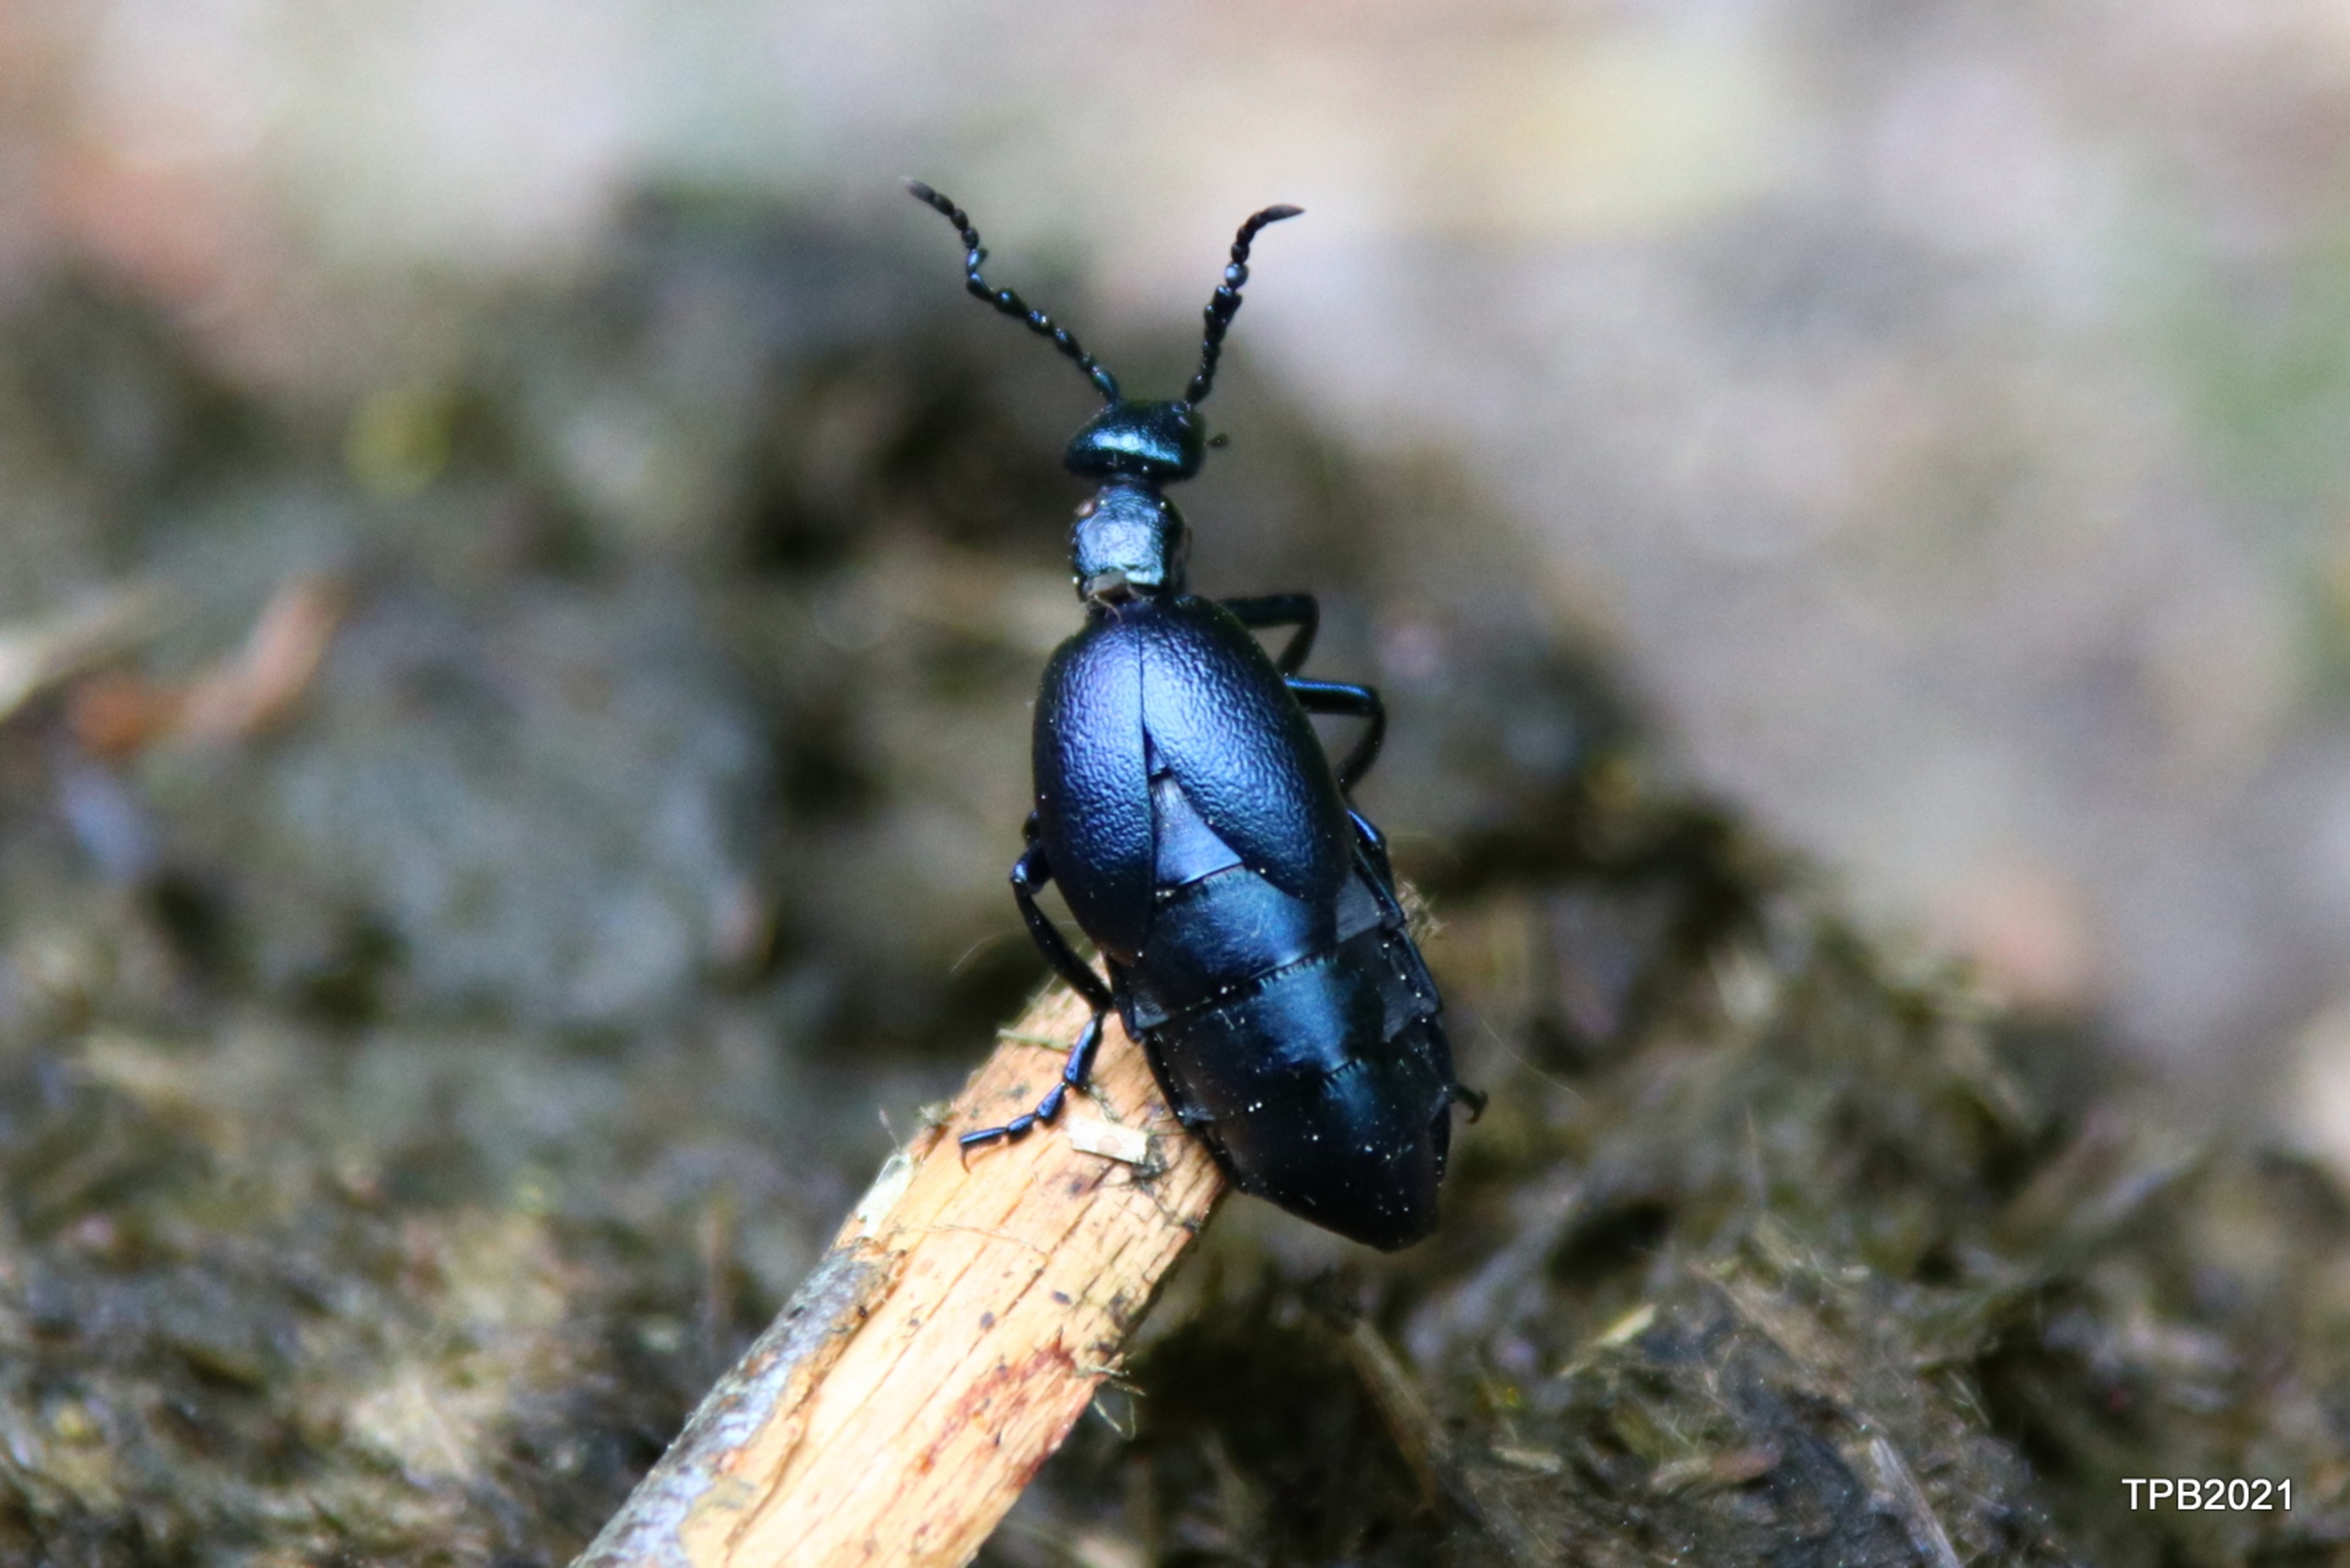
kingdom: Animalia
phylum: Arthropoda
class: Insecta
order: Coleoptera
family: Meloidae
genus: Meloe
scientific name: Meloe violaceus
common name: Blå oliebille
